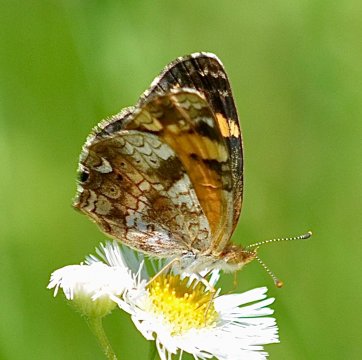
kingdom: Animalia
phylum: Arthropoda
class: Insecta
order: Lepidoptera
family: Nymphalidae
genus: Phyciodes
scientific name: Phyciodes tharos
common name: Pearl Crescent
